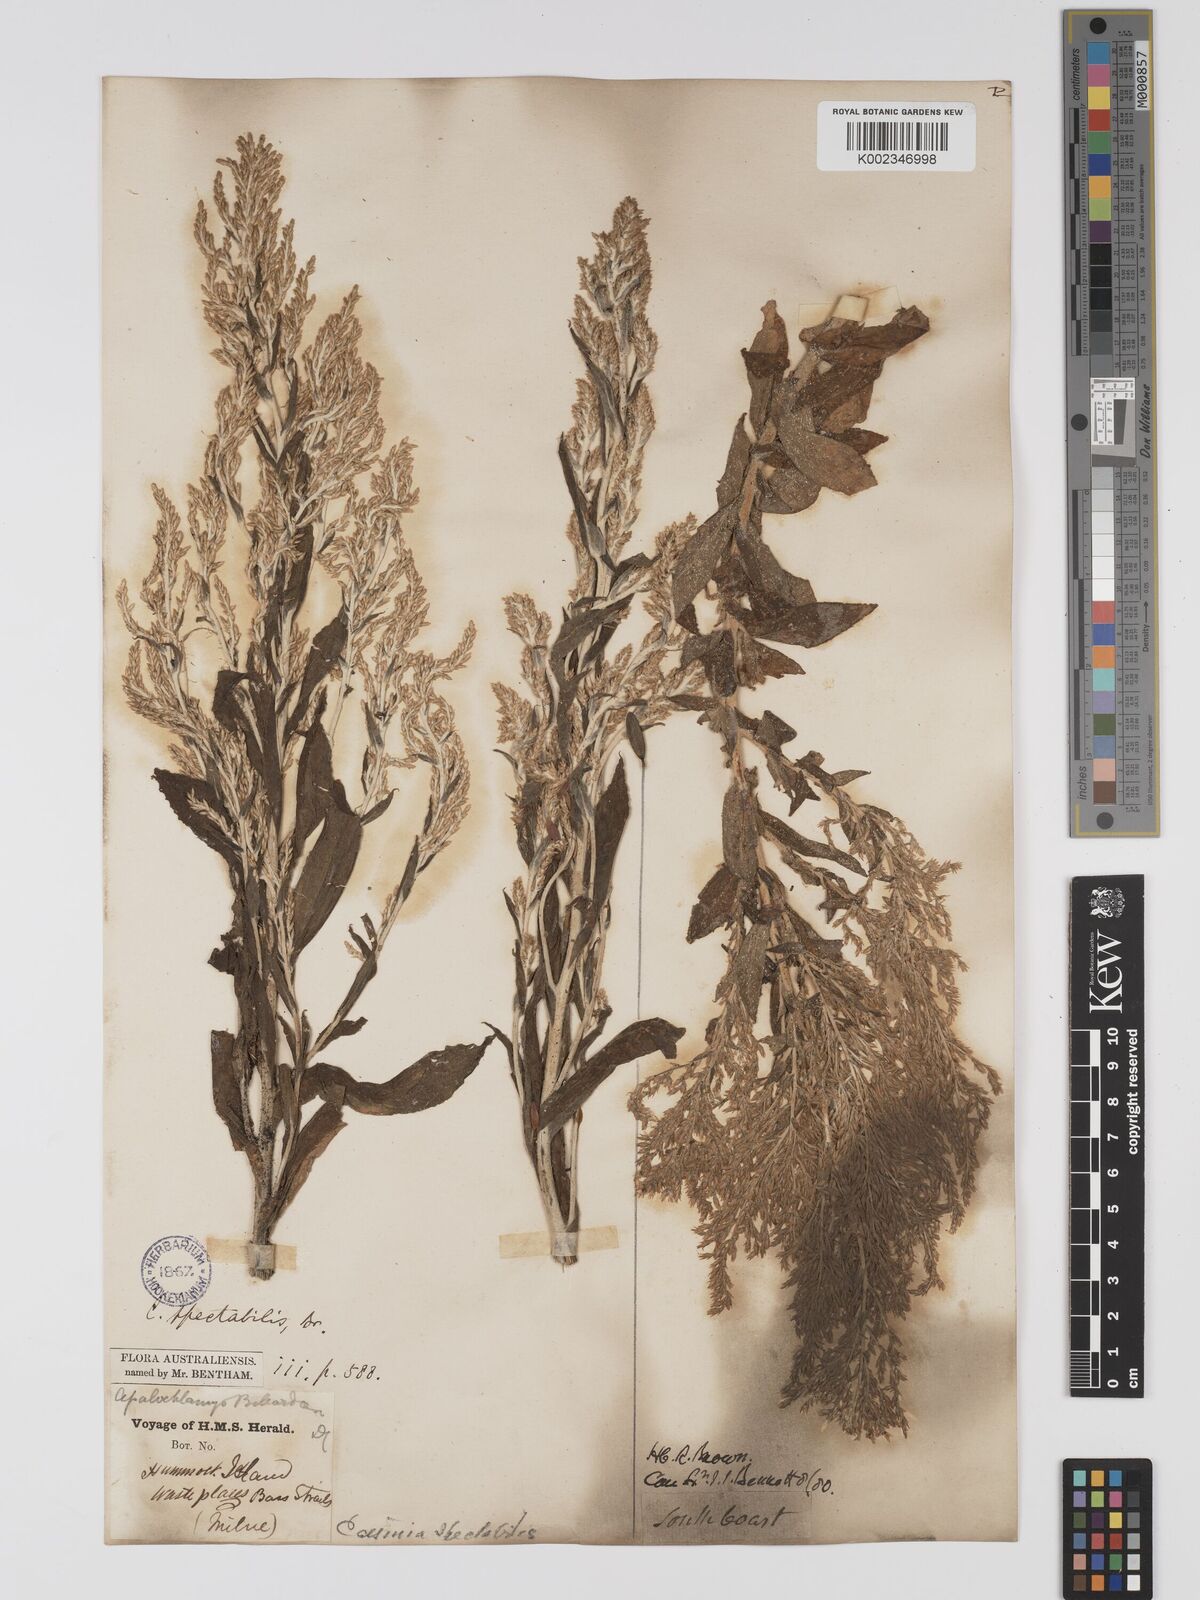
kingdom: Plantae
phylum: Tracheophyta
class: Magnoliopsida
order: Asterales
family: Asteraceae
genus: Apalochlamys
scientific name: Apalochlamys spectabilis
